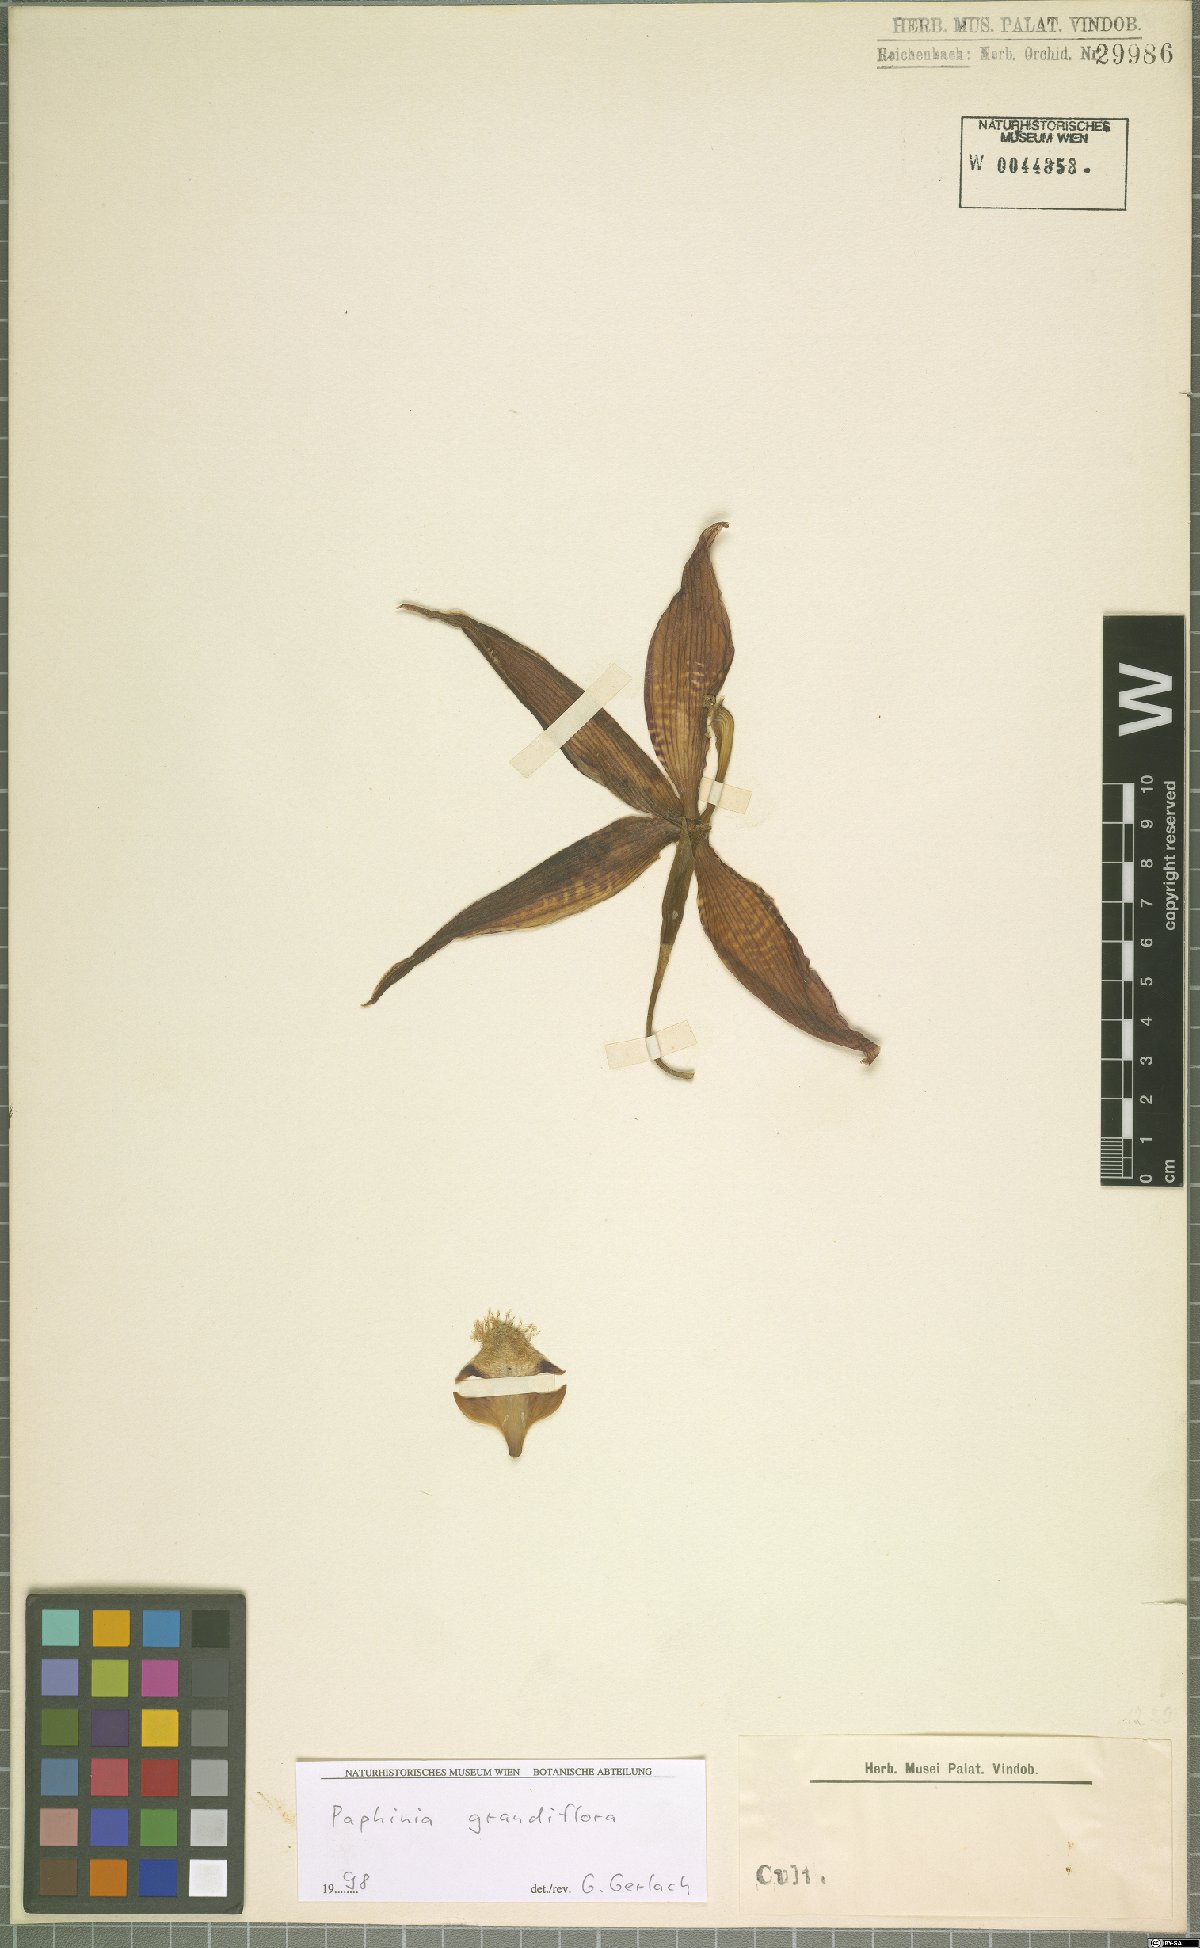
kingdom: Plantae
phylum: Tracheophyta
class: Liliopsida
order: Asparagales
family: Orchidaceae
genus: Paphinia
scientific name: Paphinia grandiflora
